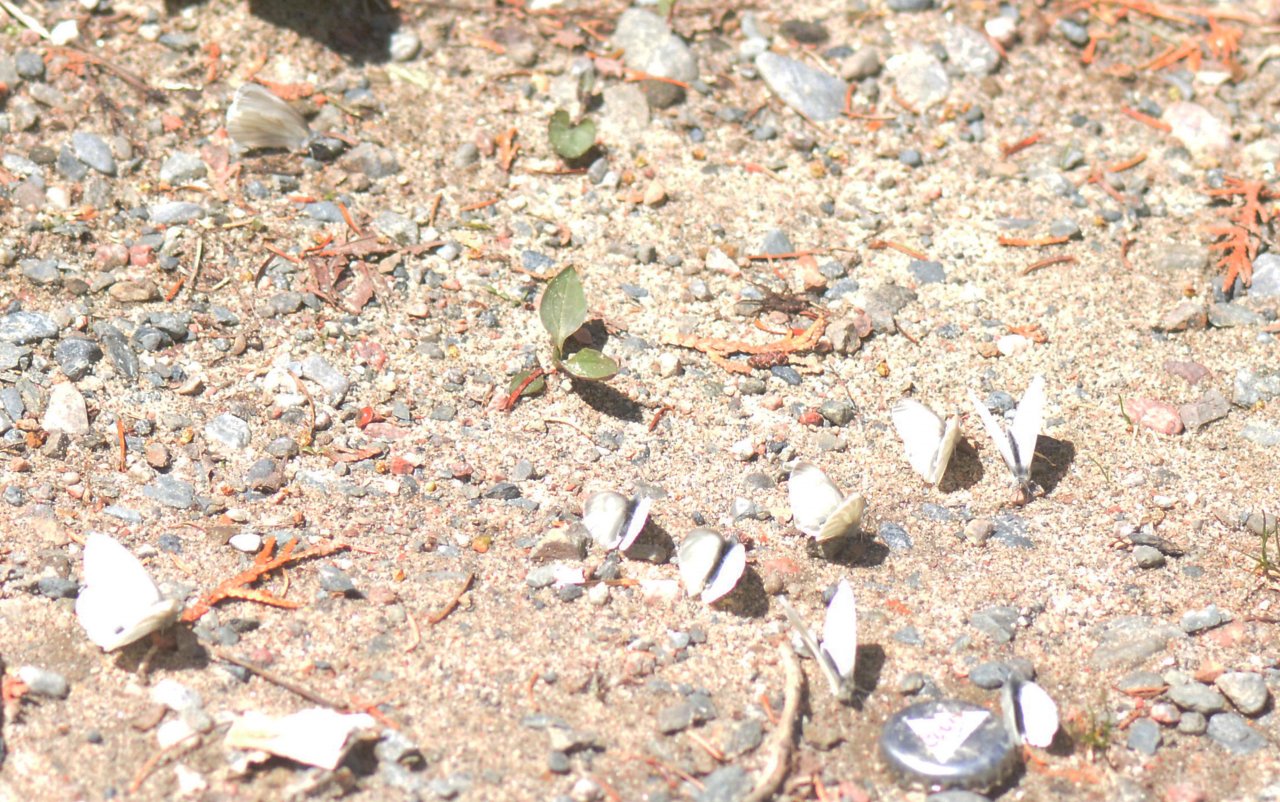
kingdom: Animalia
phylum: Arthropoda
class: Insecta
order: Lepidoptera
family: Pieridae
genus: Pieris
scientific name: Pieris virginiensis
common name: West Virginia White
